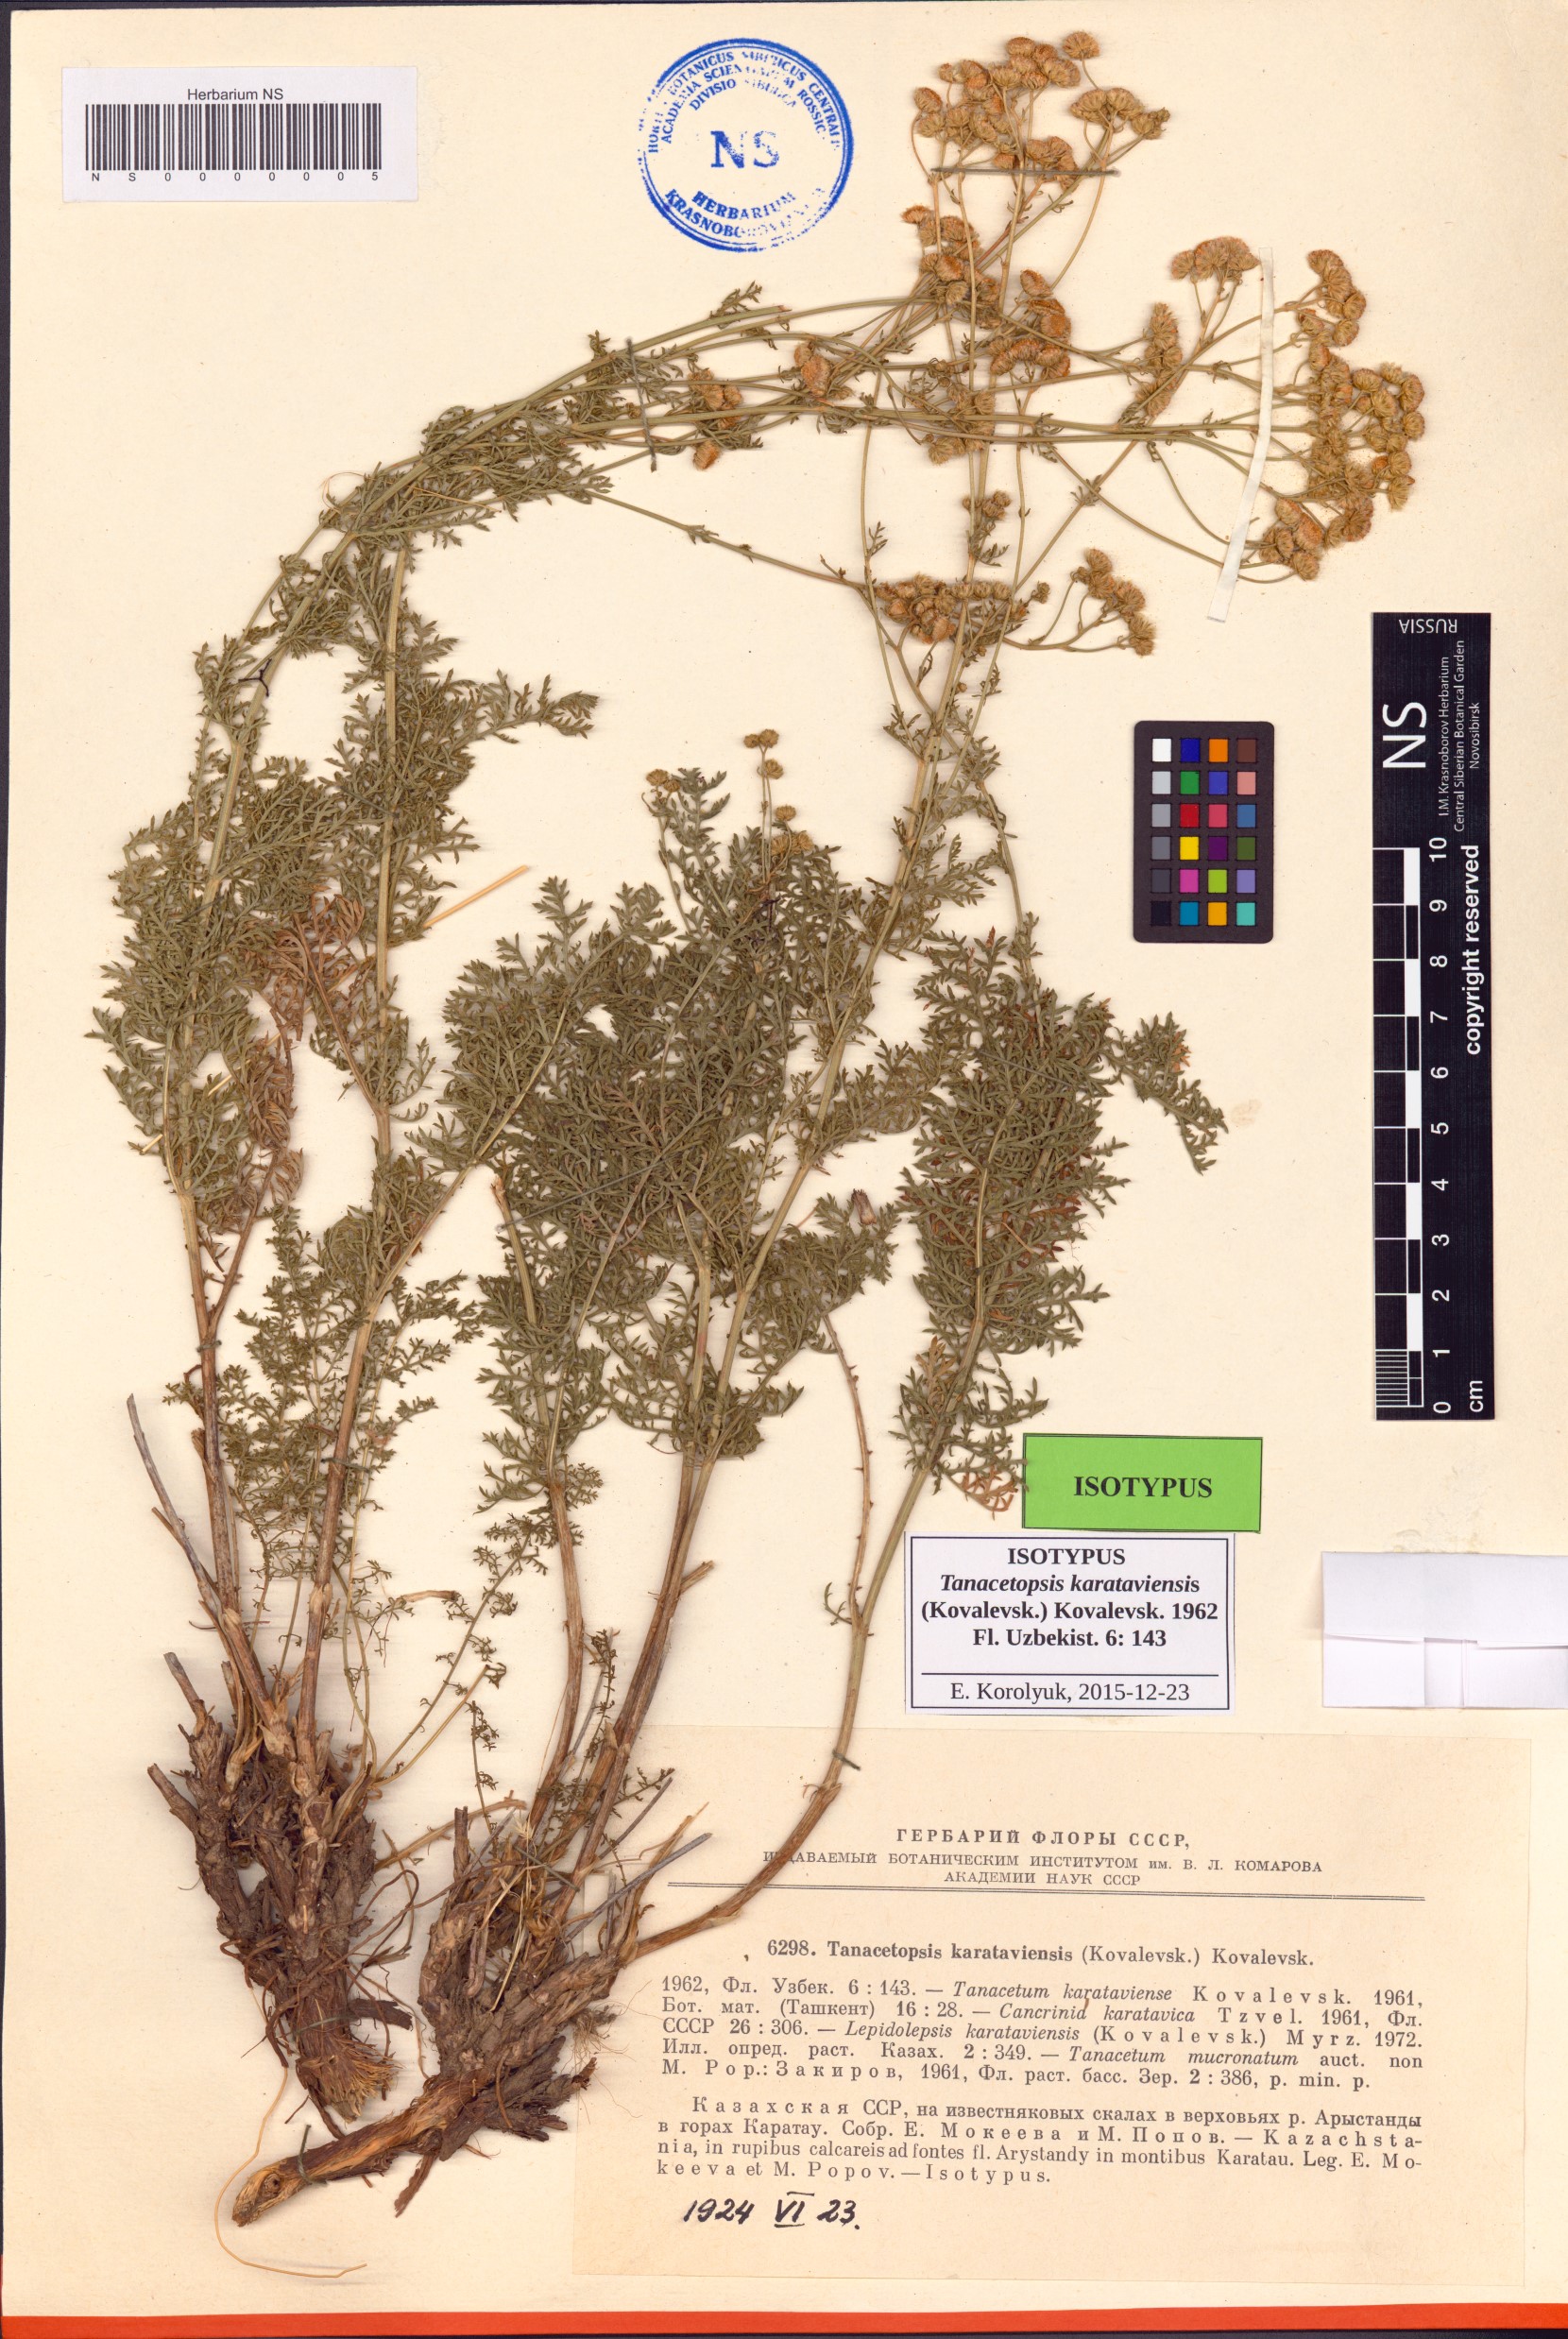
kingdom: Plantae
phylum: Tracheophyta
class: Magnoliopsida
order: Asterales
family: Asteraceae
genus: Tanacetopsis
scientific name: Tanacetopsis karataviensis
